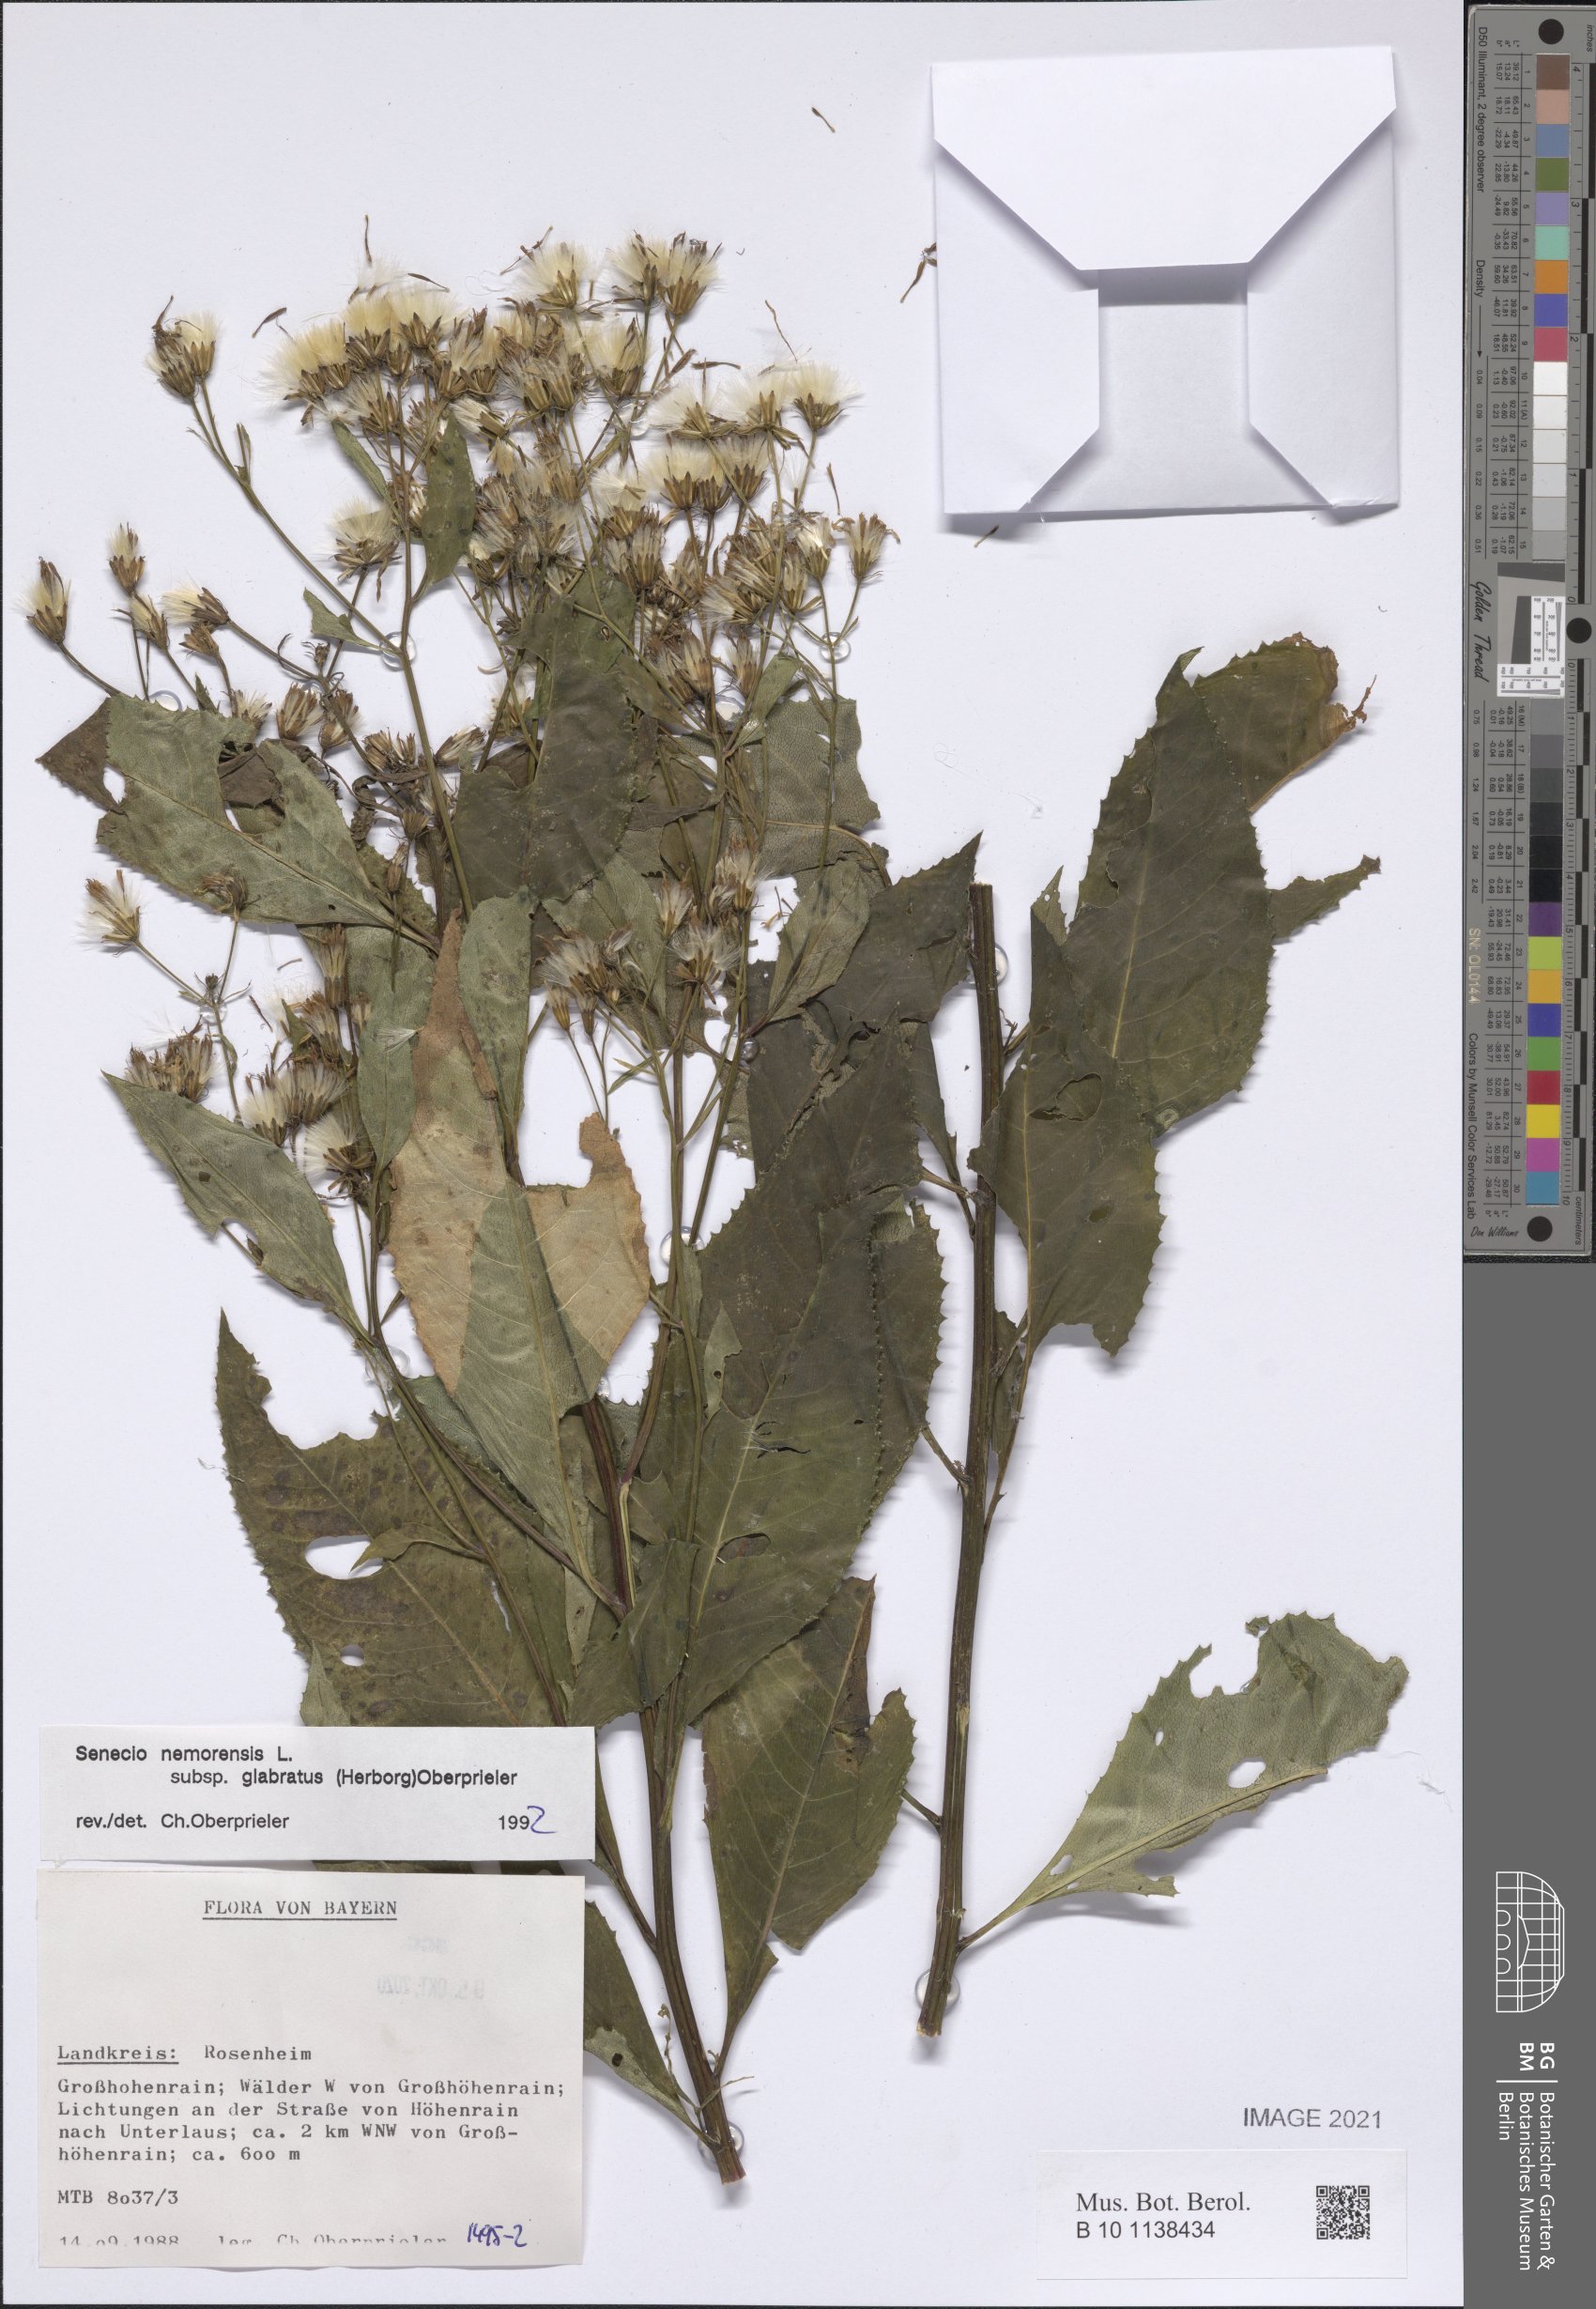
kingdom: Plantae
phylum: Tracheophyta
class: Magnoliopsida
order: Asterales
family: Asteraceae
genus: Senecio
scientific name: Senecio germanicus
